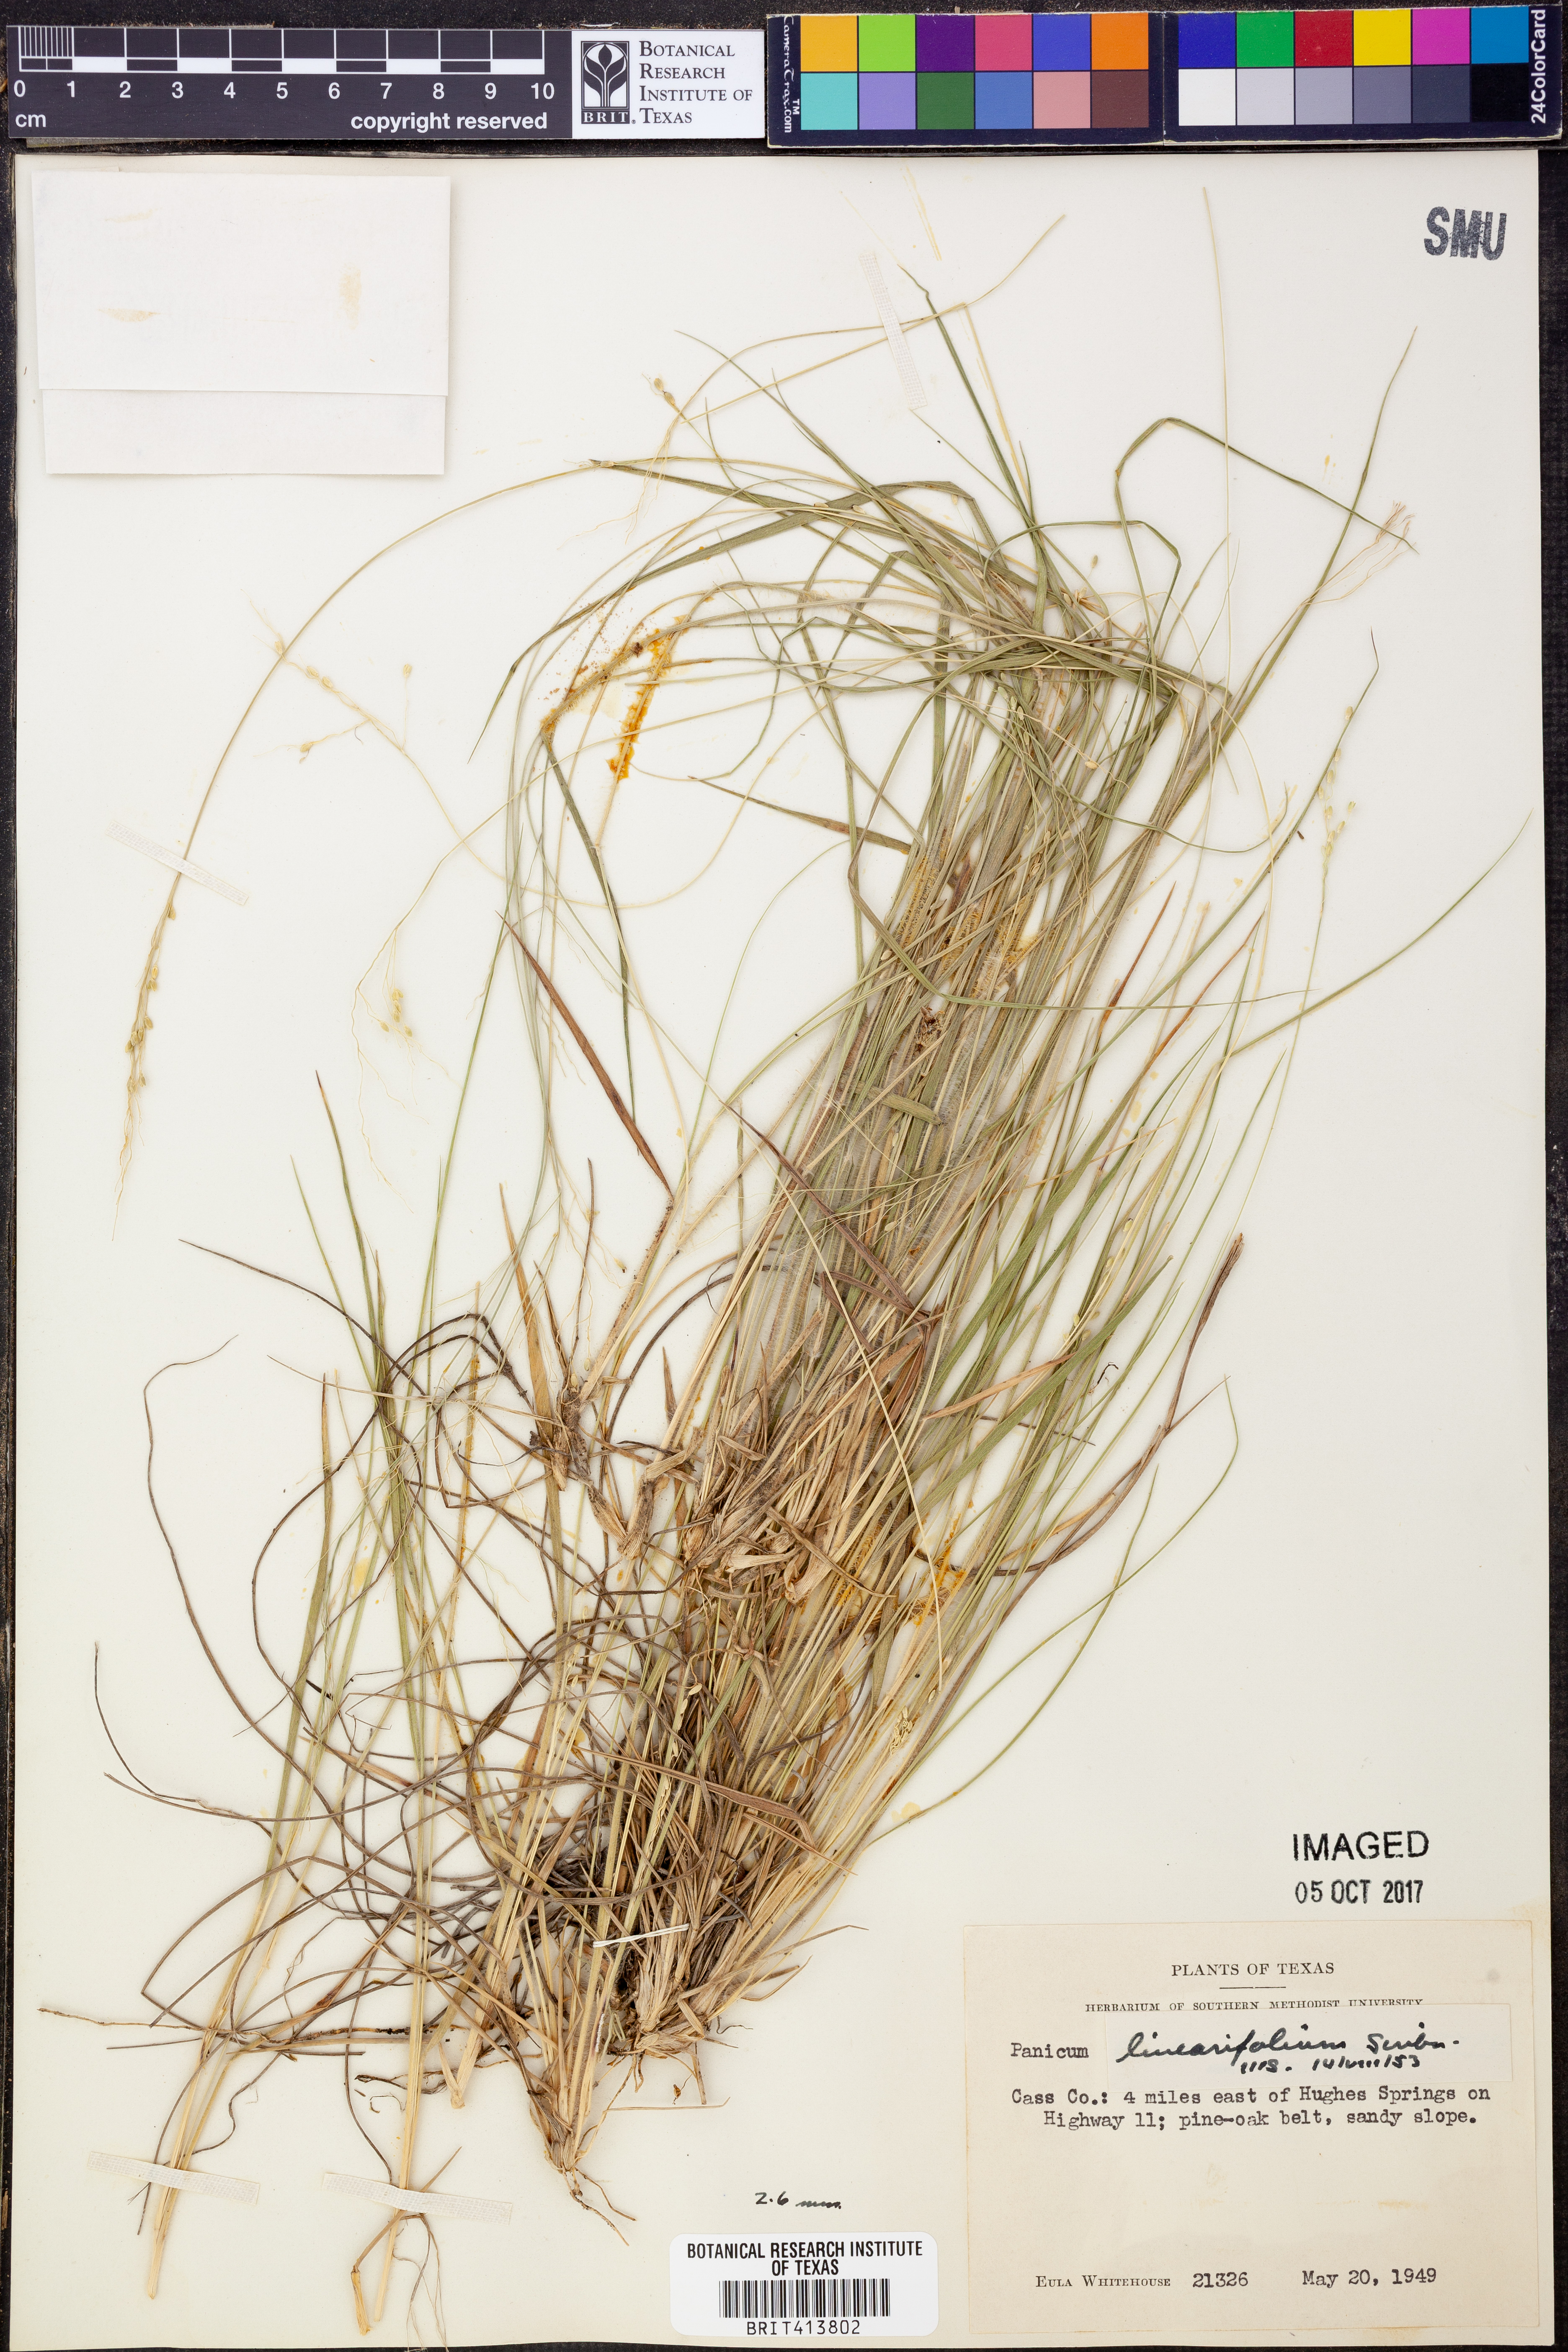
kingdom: Plantae
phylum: Tracheophyta
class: Liliopsida
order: Poales
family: Poaceae
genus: Dichanthelium
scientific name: Dichanthelium linearifolium
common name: Linear-leaved panicgrass
